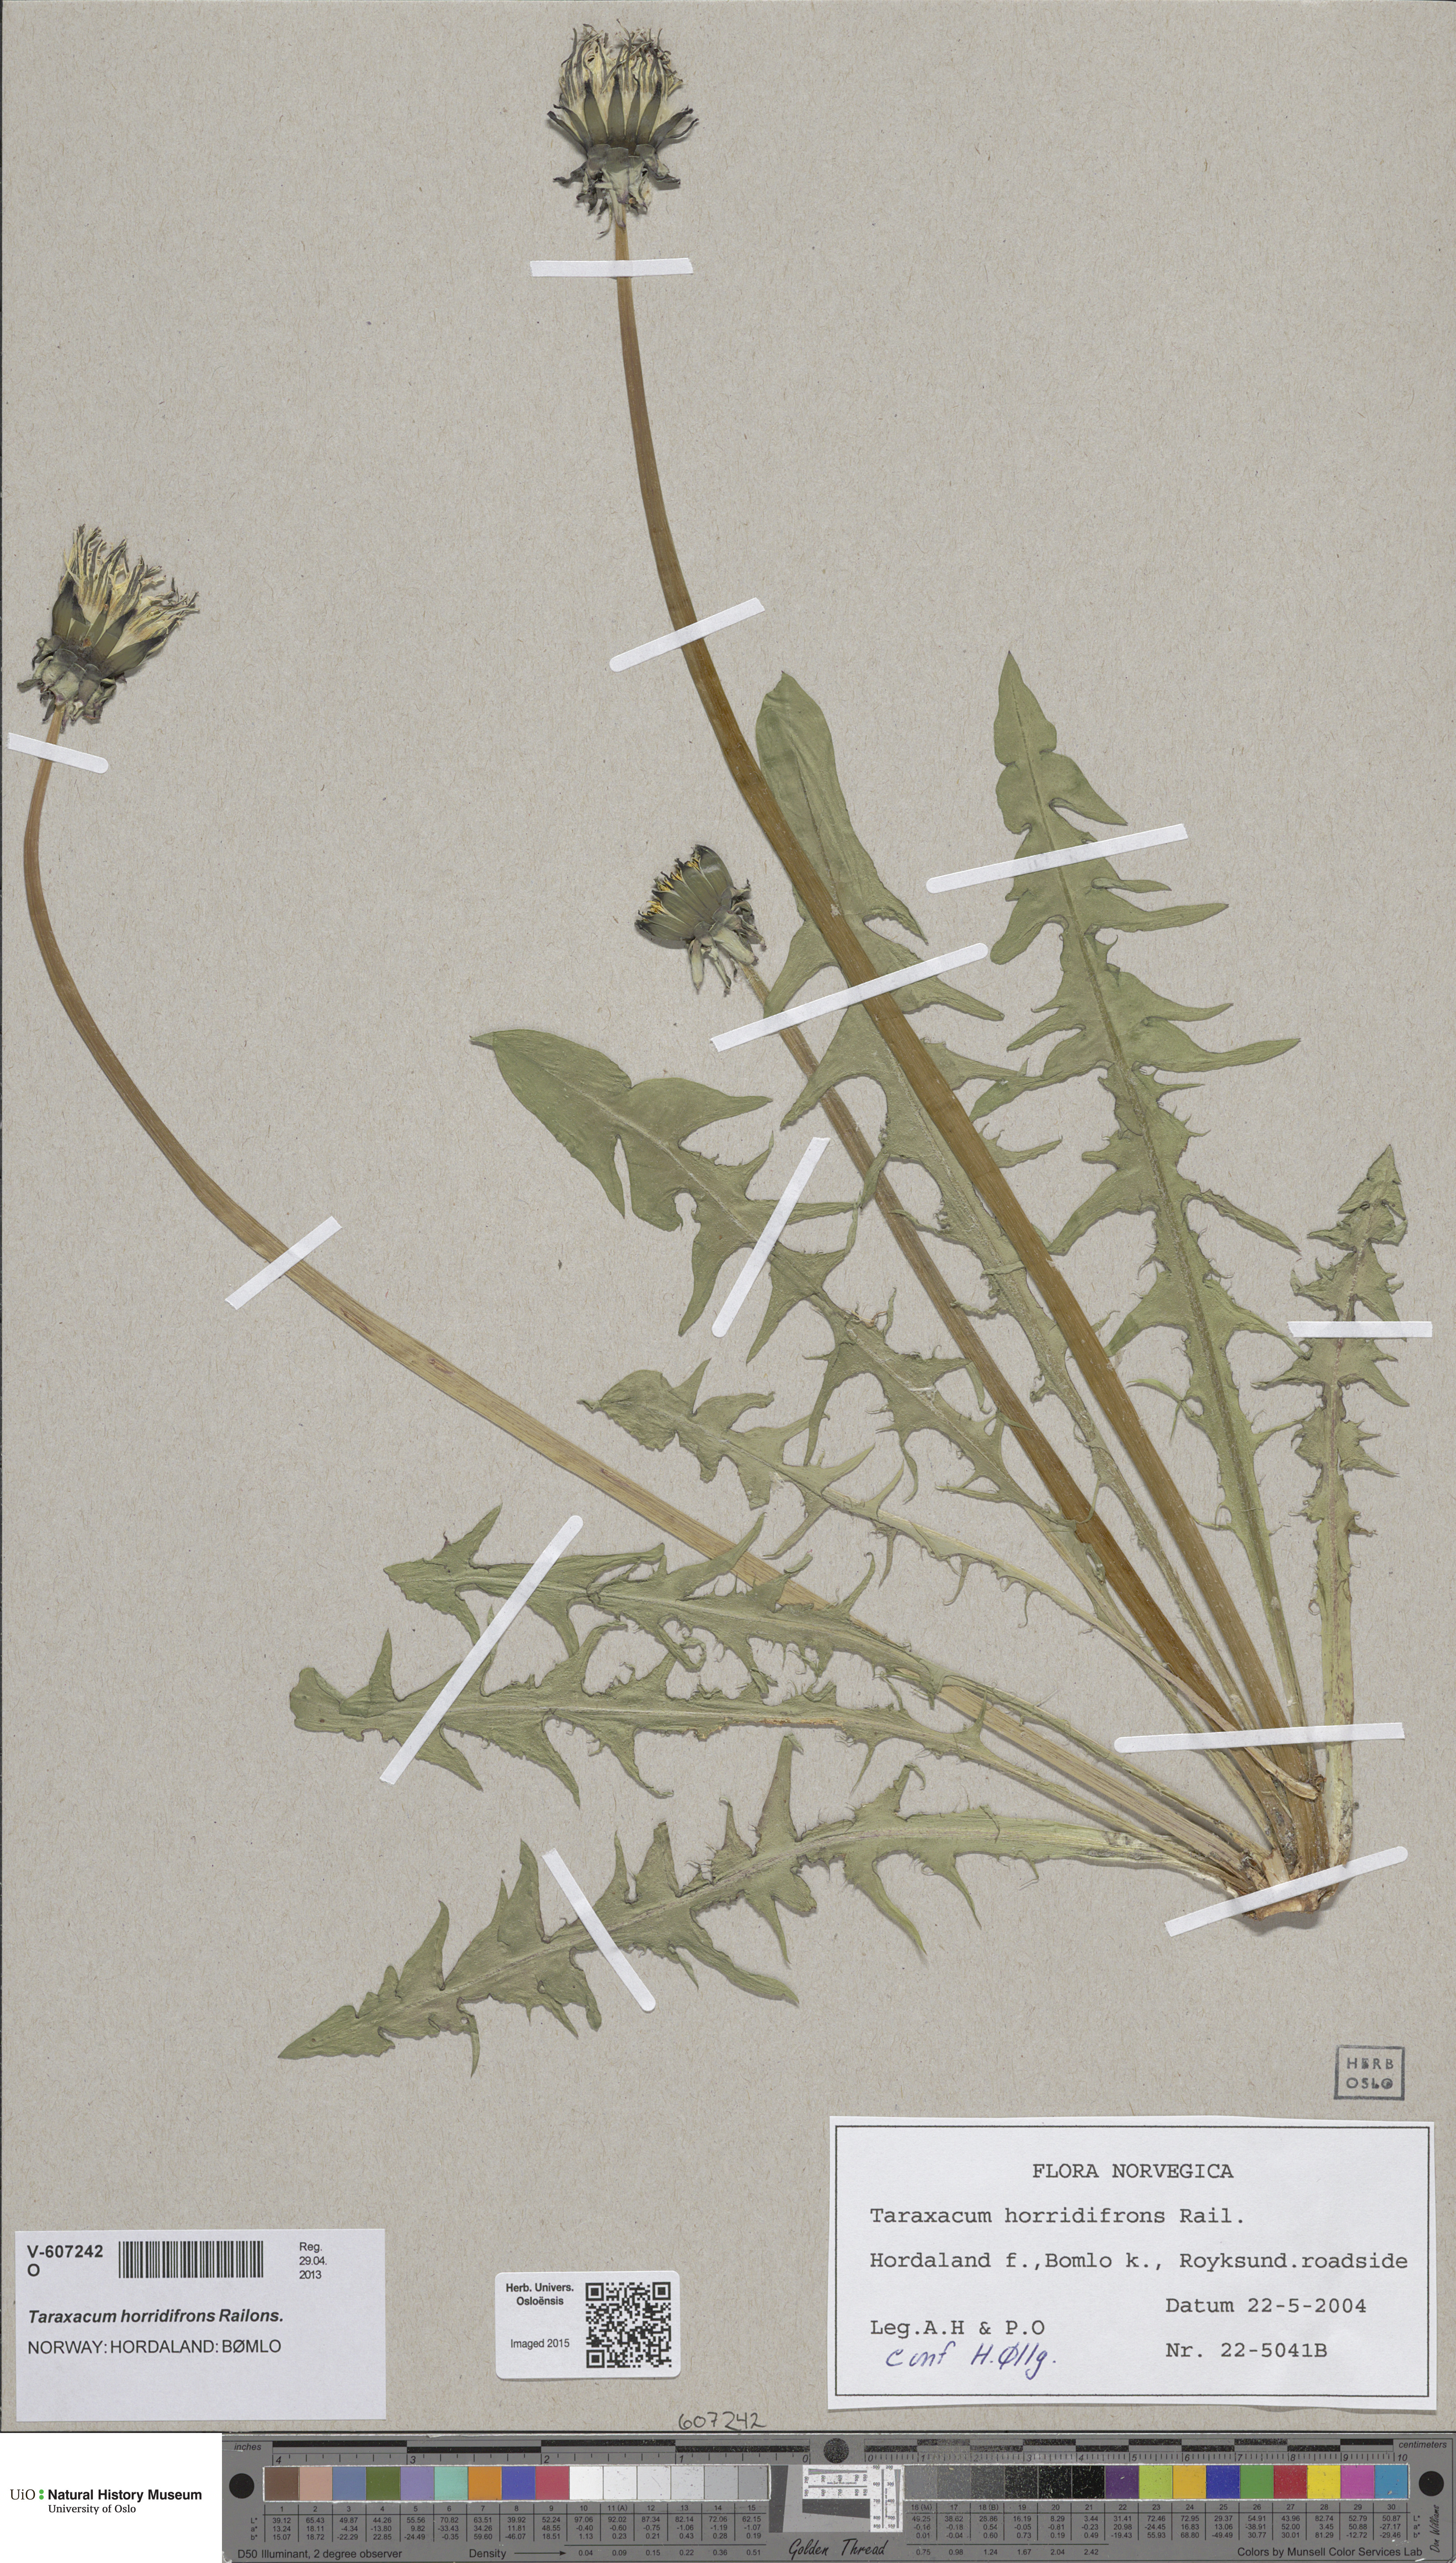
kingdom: Plantae
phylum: Tracheophyta
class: Magnoliopsida
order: Asterales
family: Asteraceae
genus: Taraxacum
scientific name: Taraxacum horridifrons
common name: Prickly-leaved dandelion
